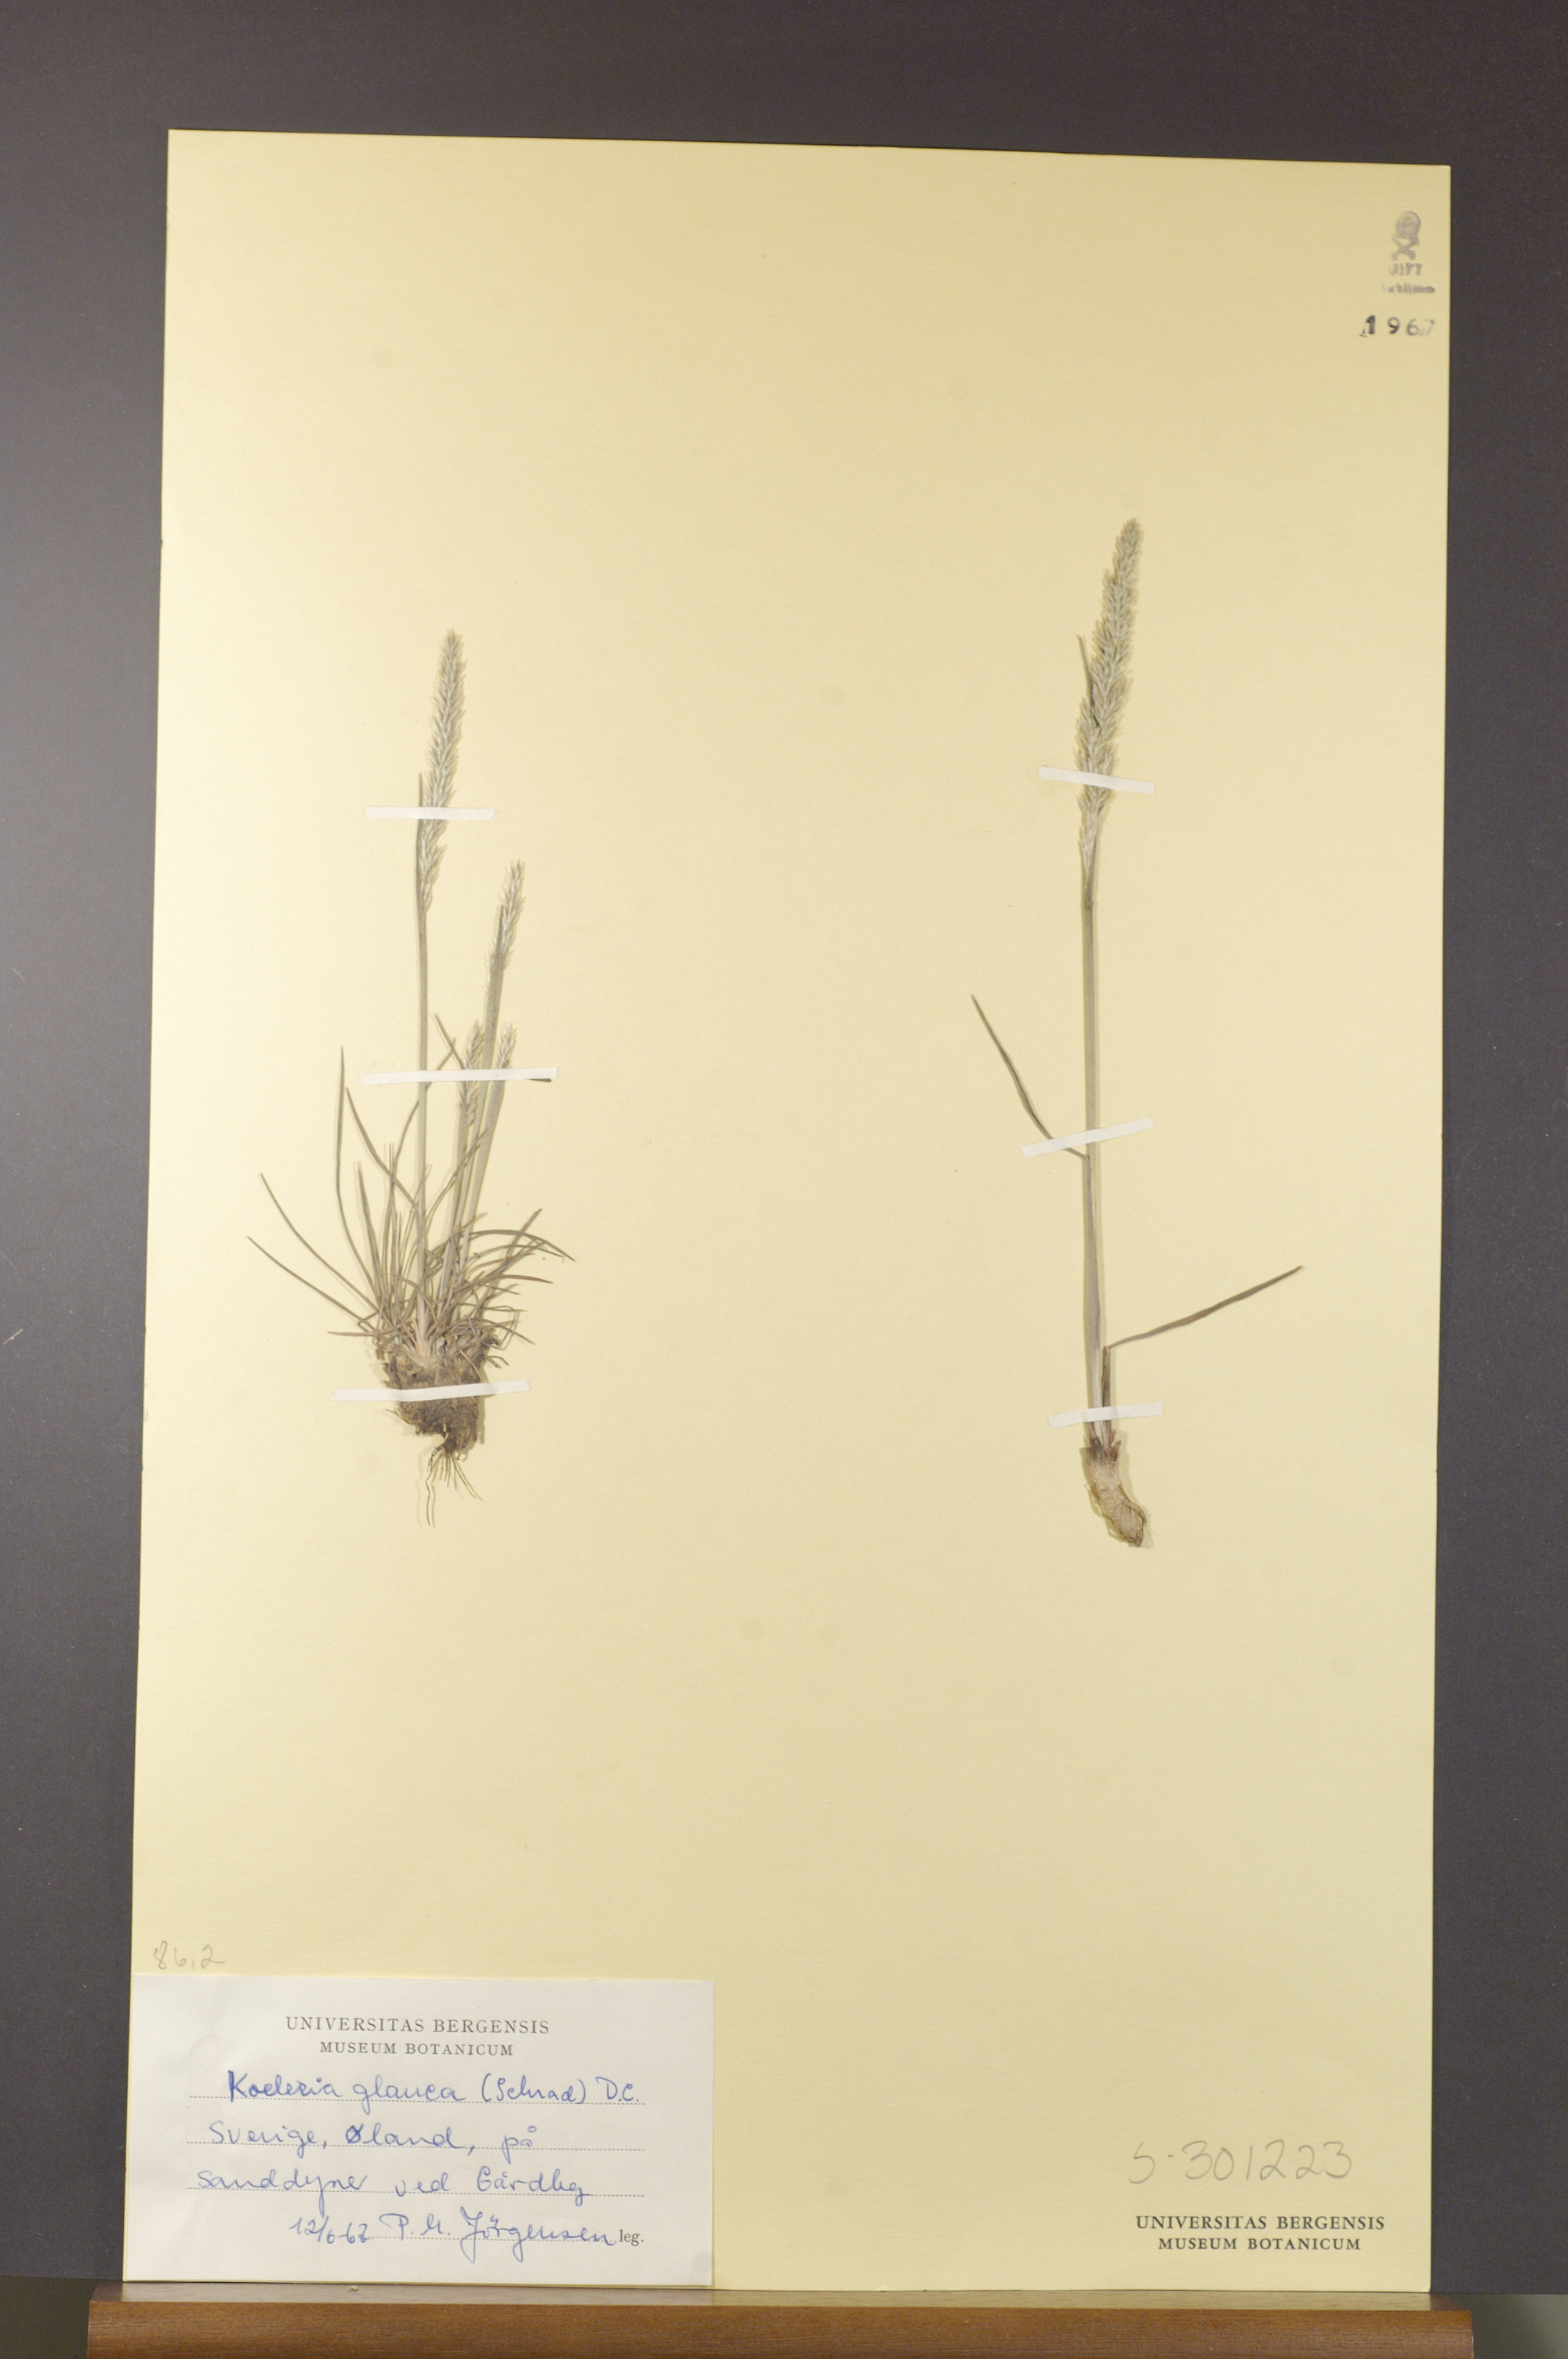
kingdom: Plantae
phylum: Tracheophyta
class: Liliopsida
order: Poales
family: Poaceae
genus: Koeleria
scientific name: Koeleria glauca
